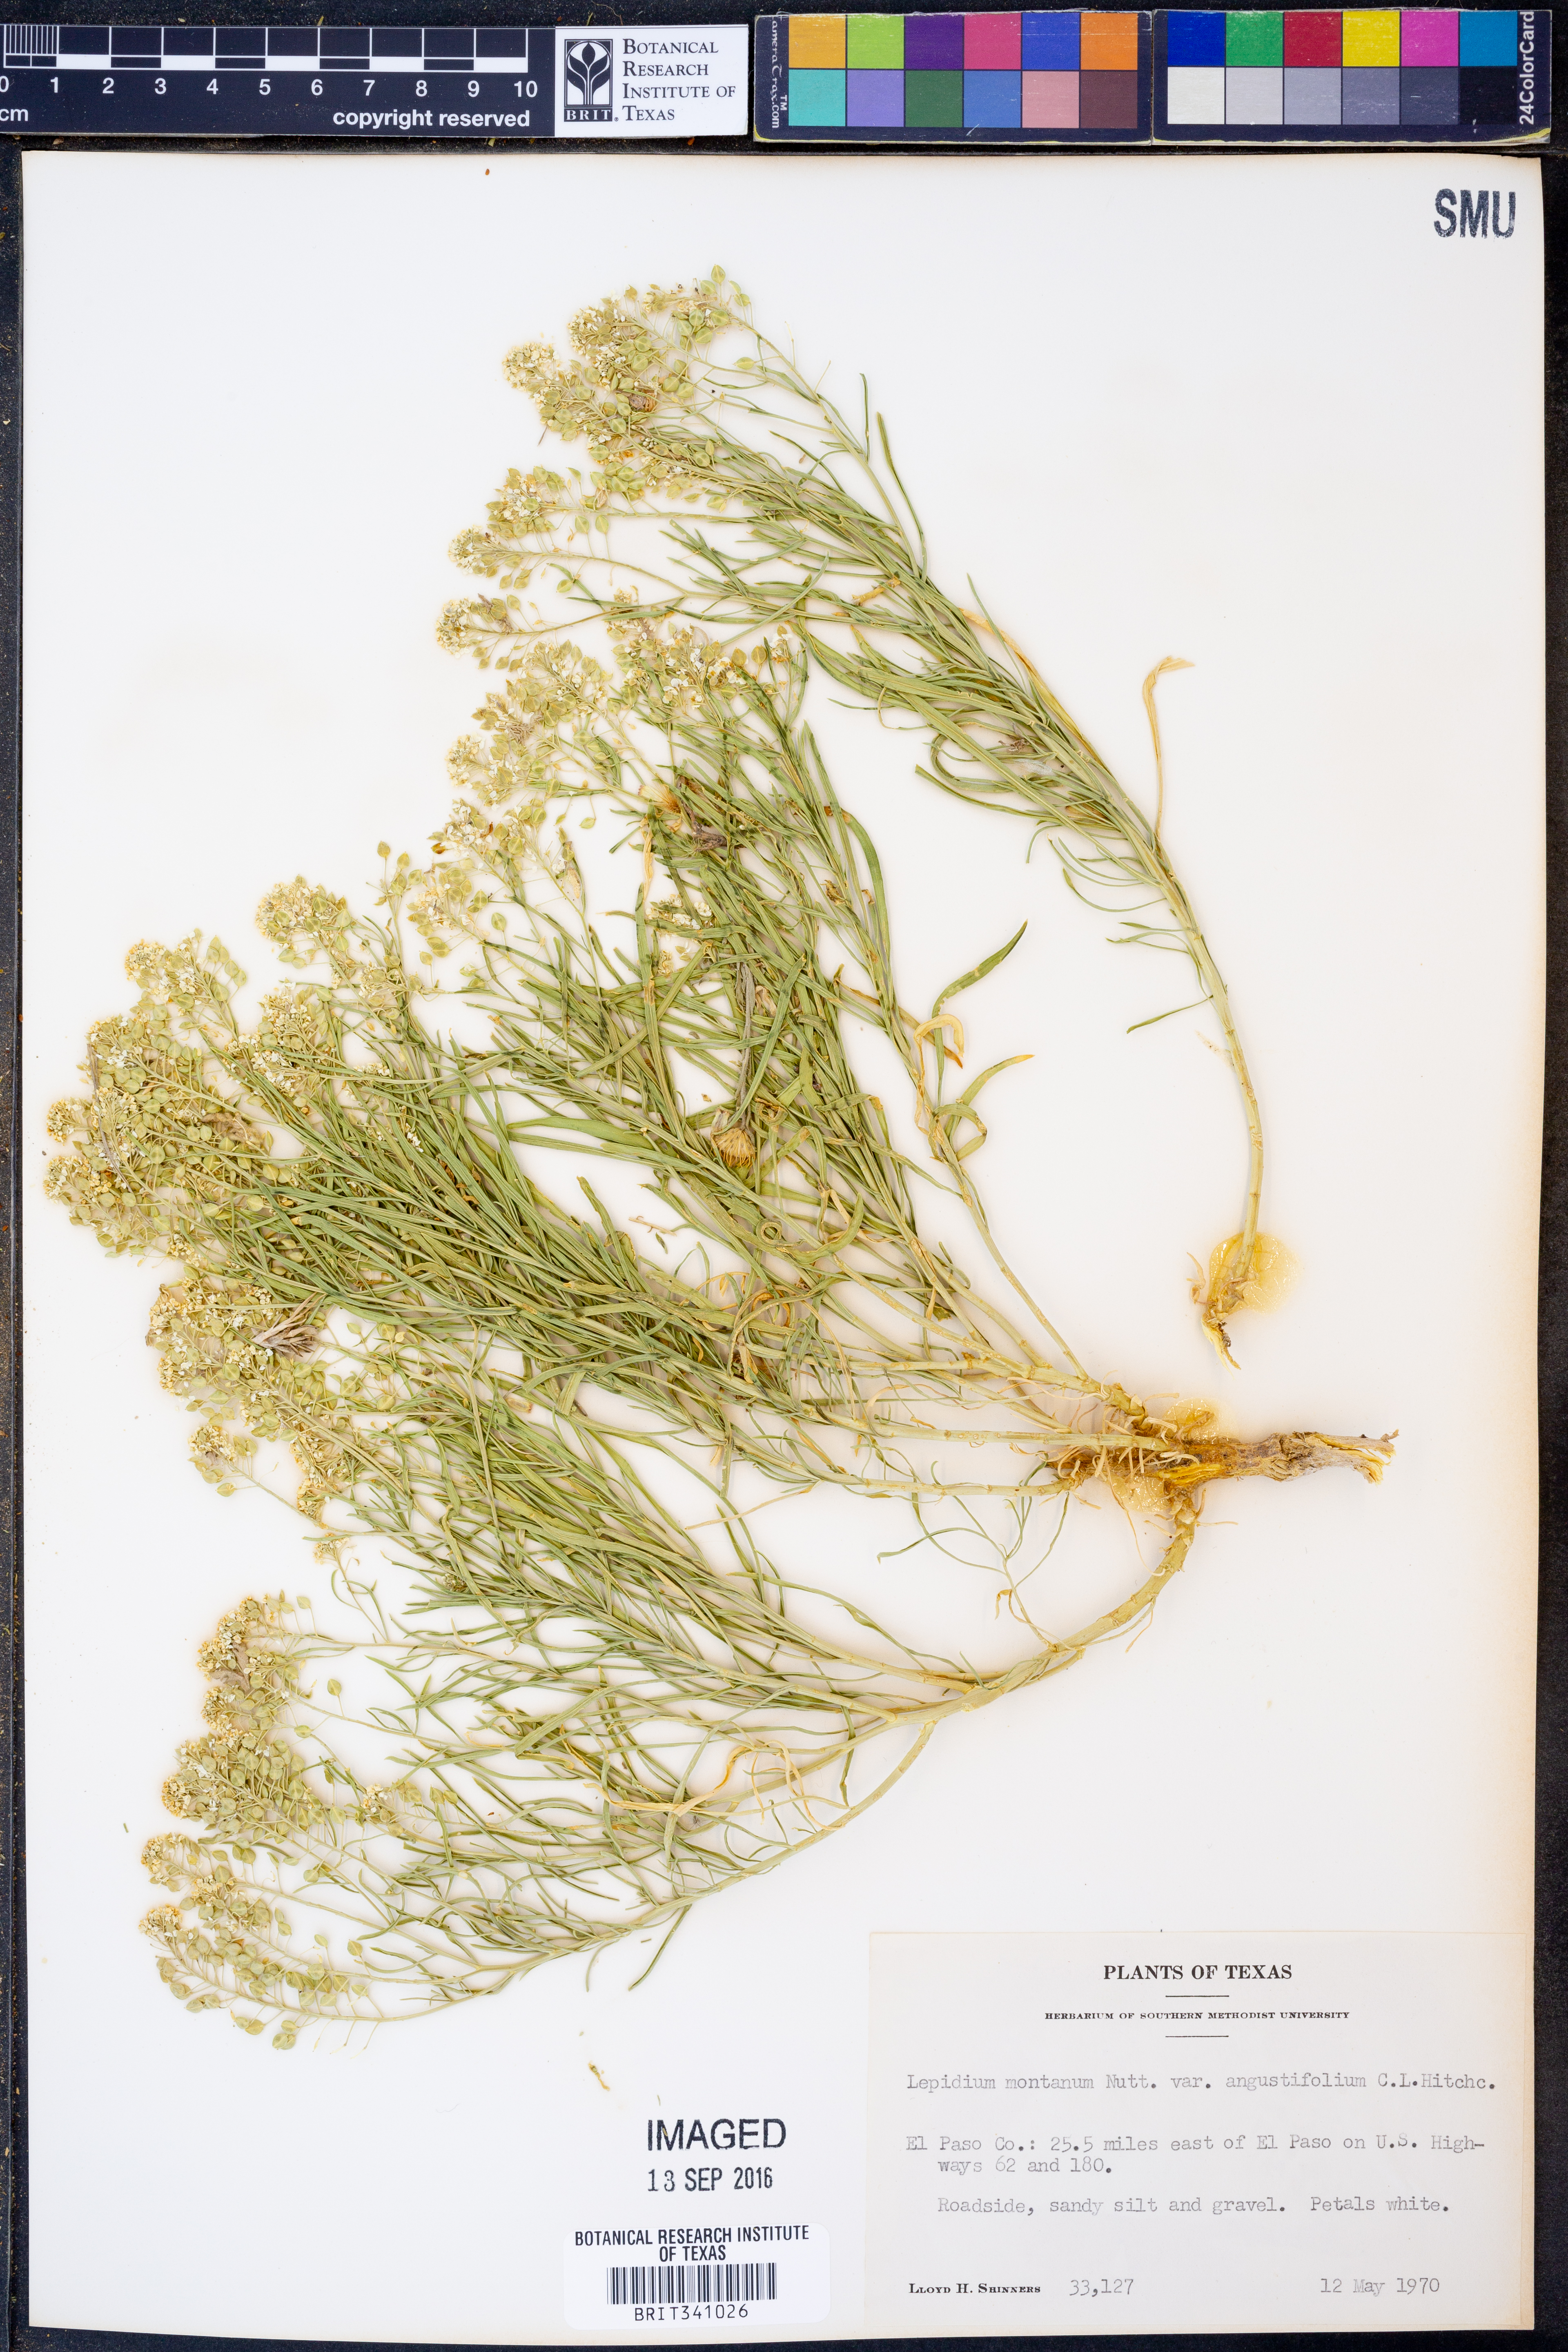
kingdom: Plantae
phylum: Tracheophyta
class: Magnoliopsida
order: Brassicales
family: Brassicaceae
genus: Lepidium
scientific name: Lepidium alyssoides
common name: Mesa pepperweed
